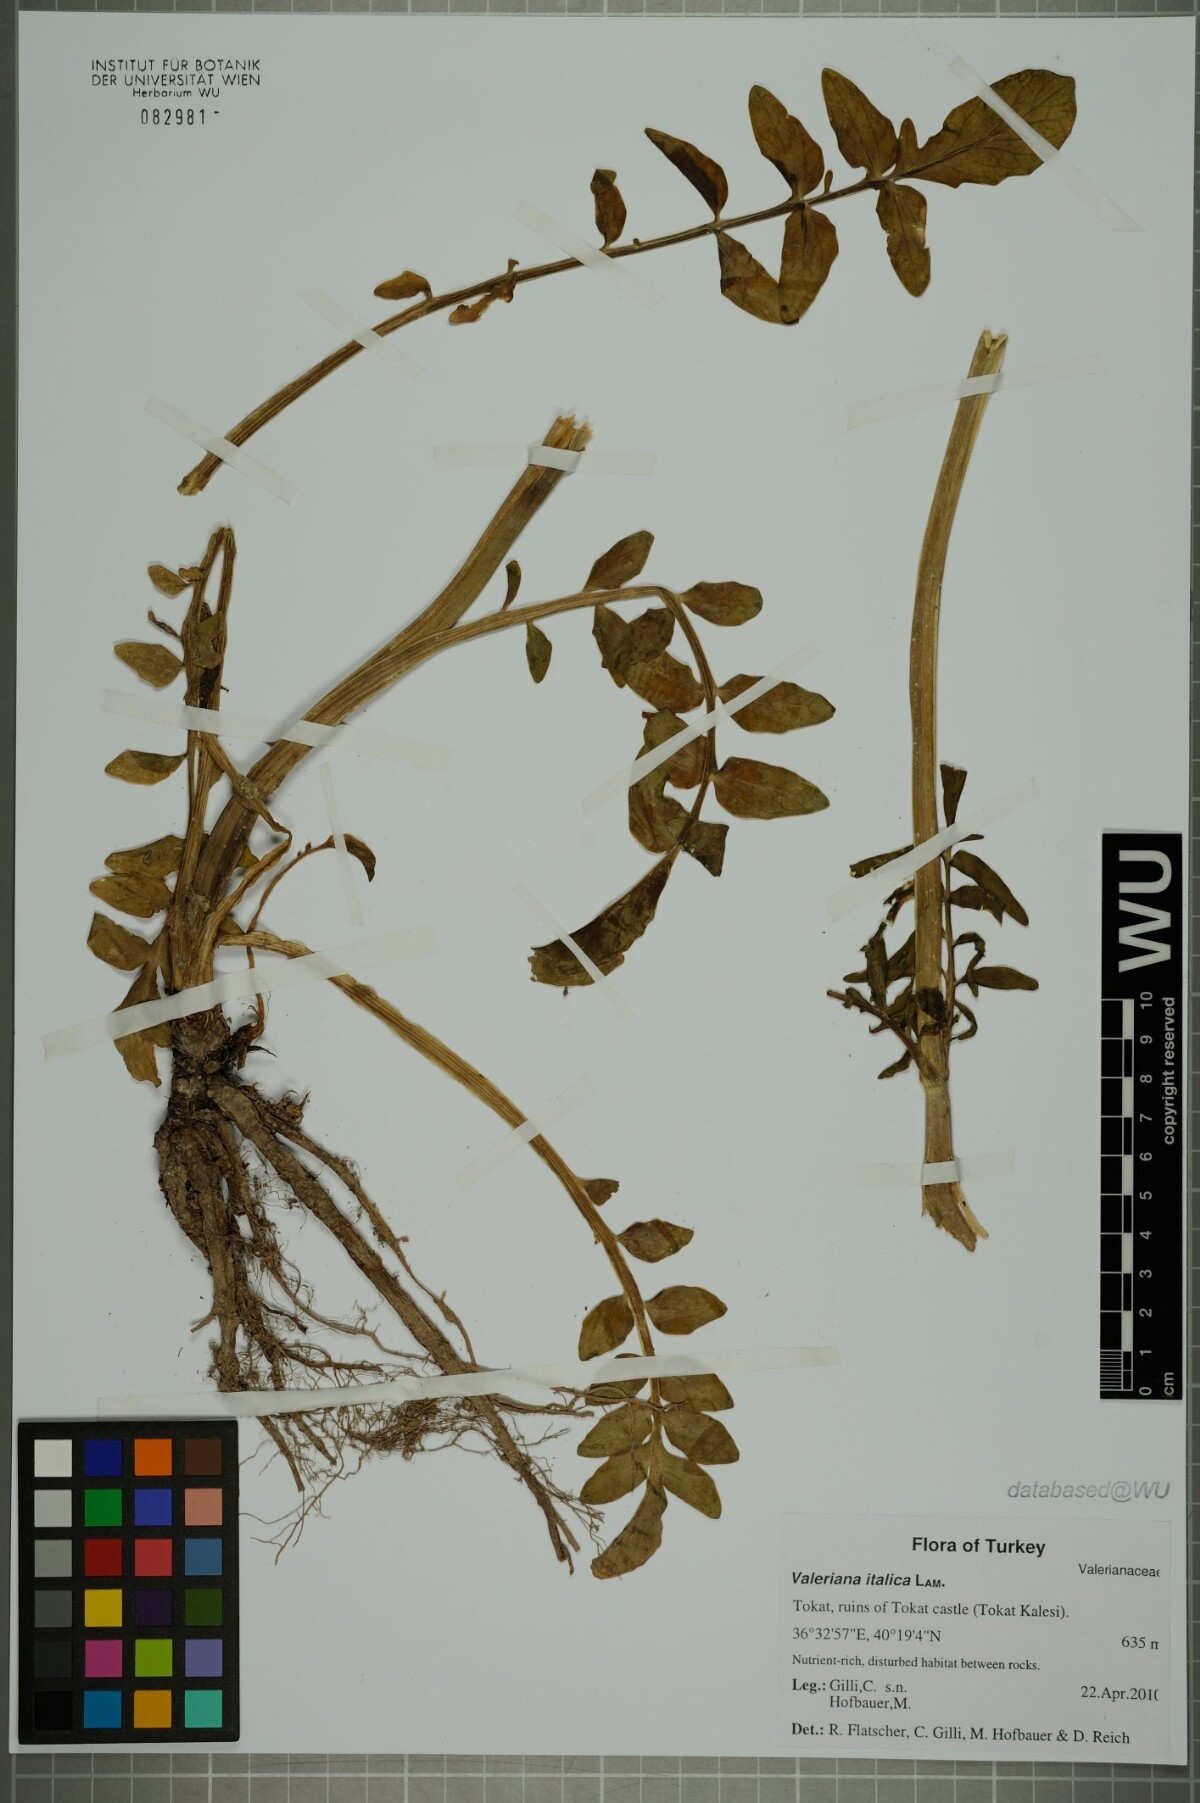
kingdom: Plantae
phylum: Tracheophyta
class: Magnoliopsida
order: Dipsacales
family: Caprifoliaceae
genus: Valeriana
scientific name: Valeriana dioscoridis
